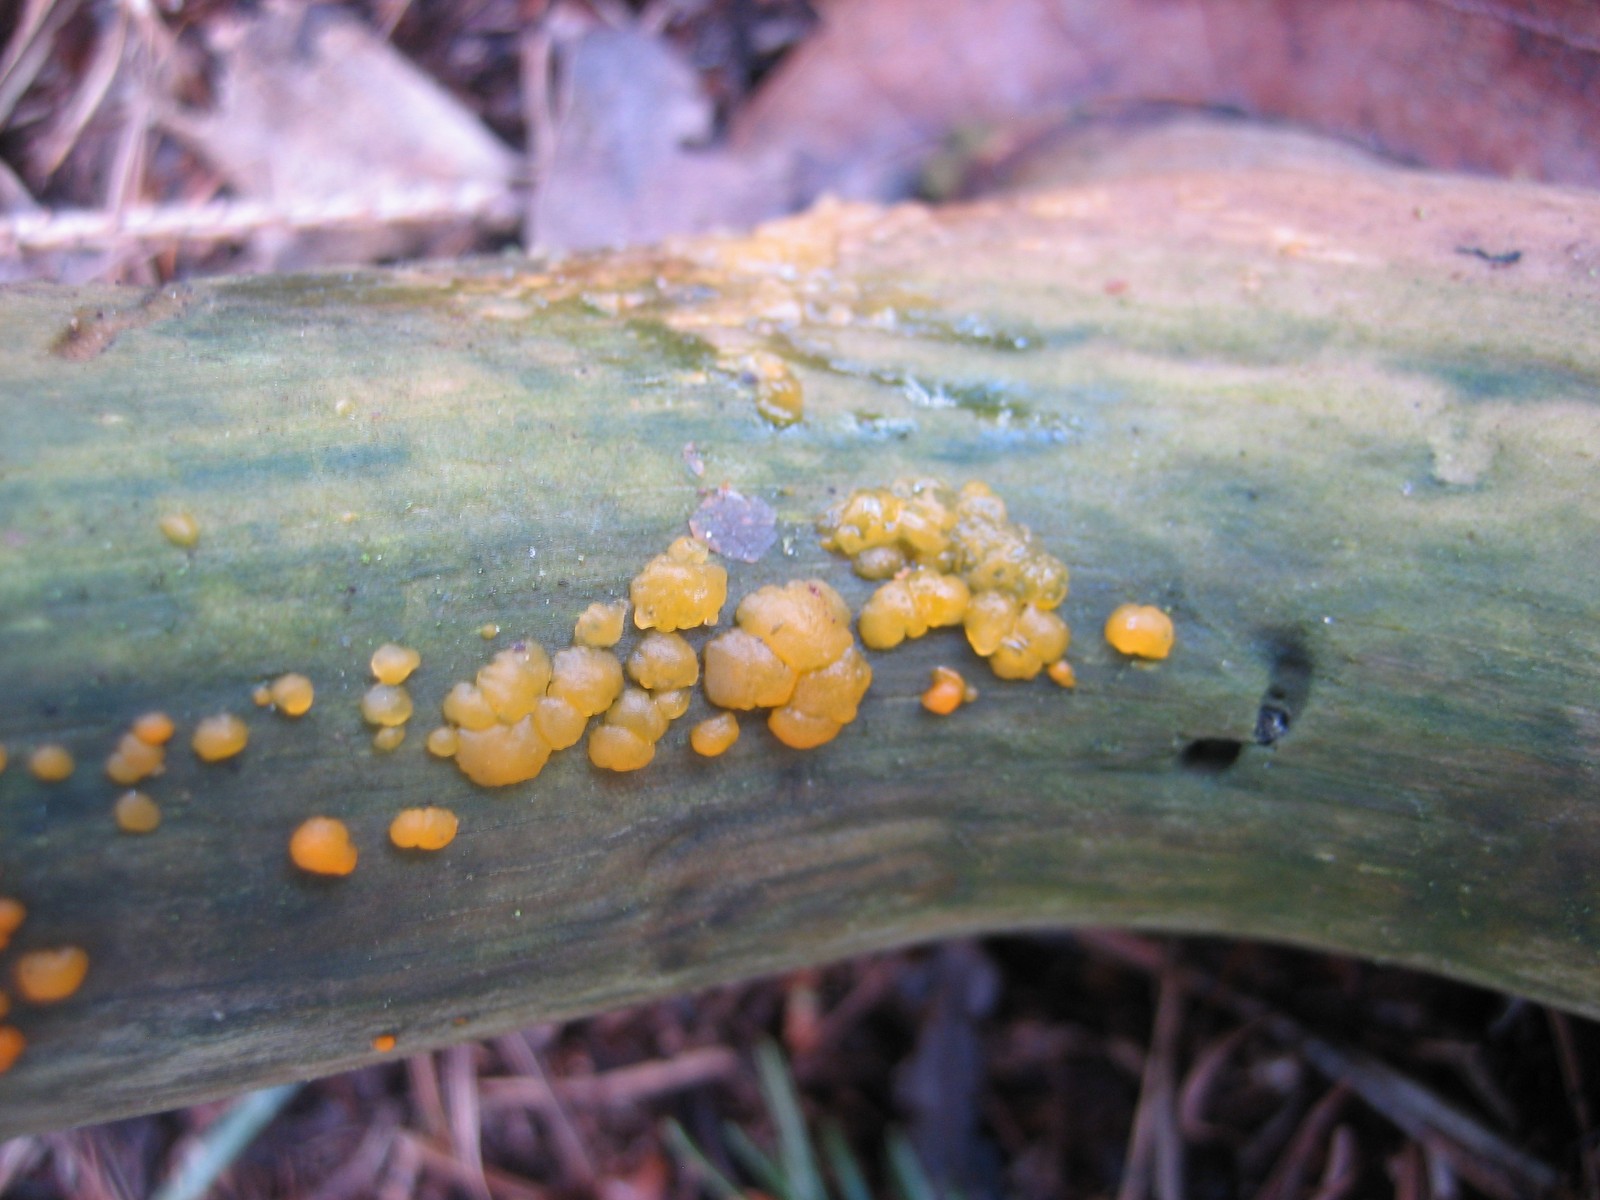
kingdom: Fungi
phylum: Basidiomycota
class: Dacrymycetes
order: Dacrymycetales
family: Dacrymycetaceae
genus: Dacrymyces
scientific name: Dacrymyces stillatus
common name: almindelig tåresvamp
